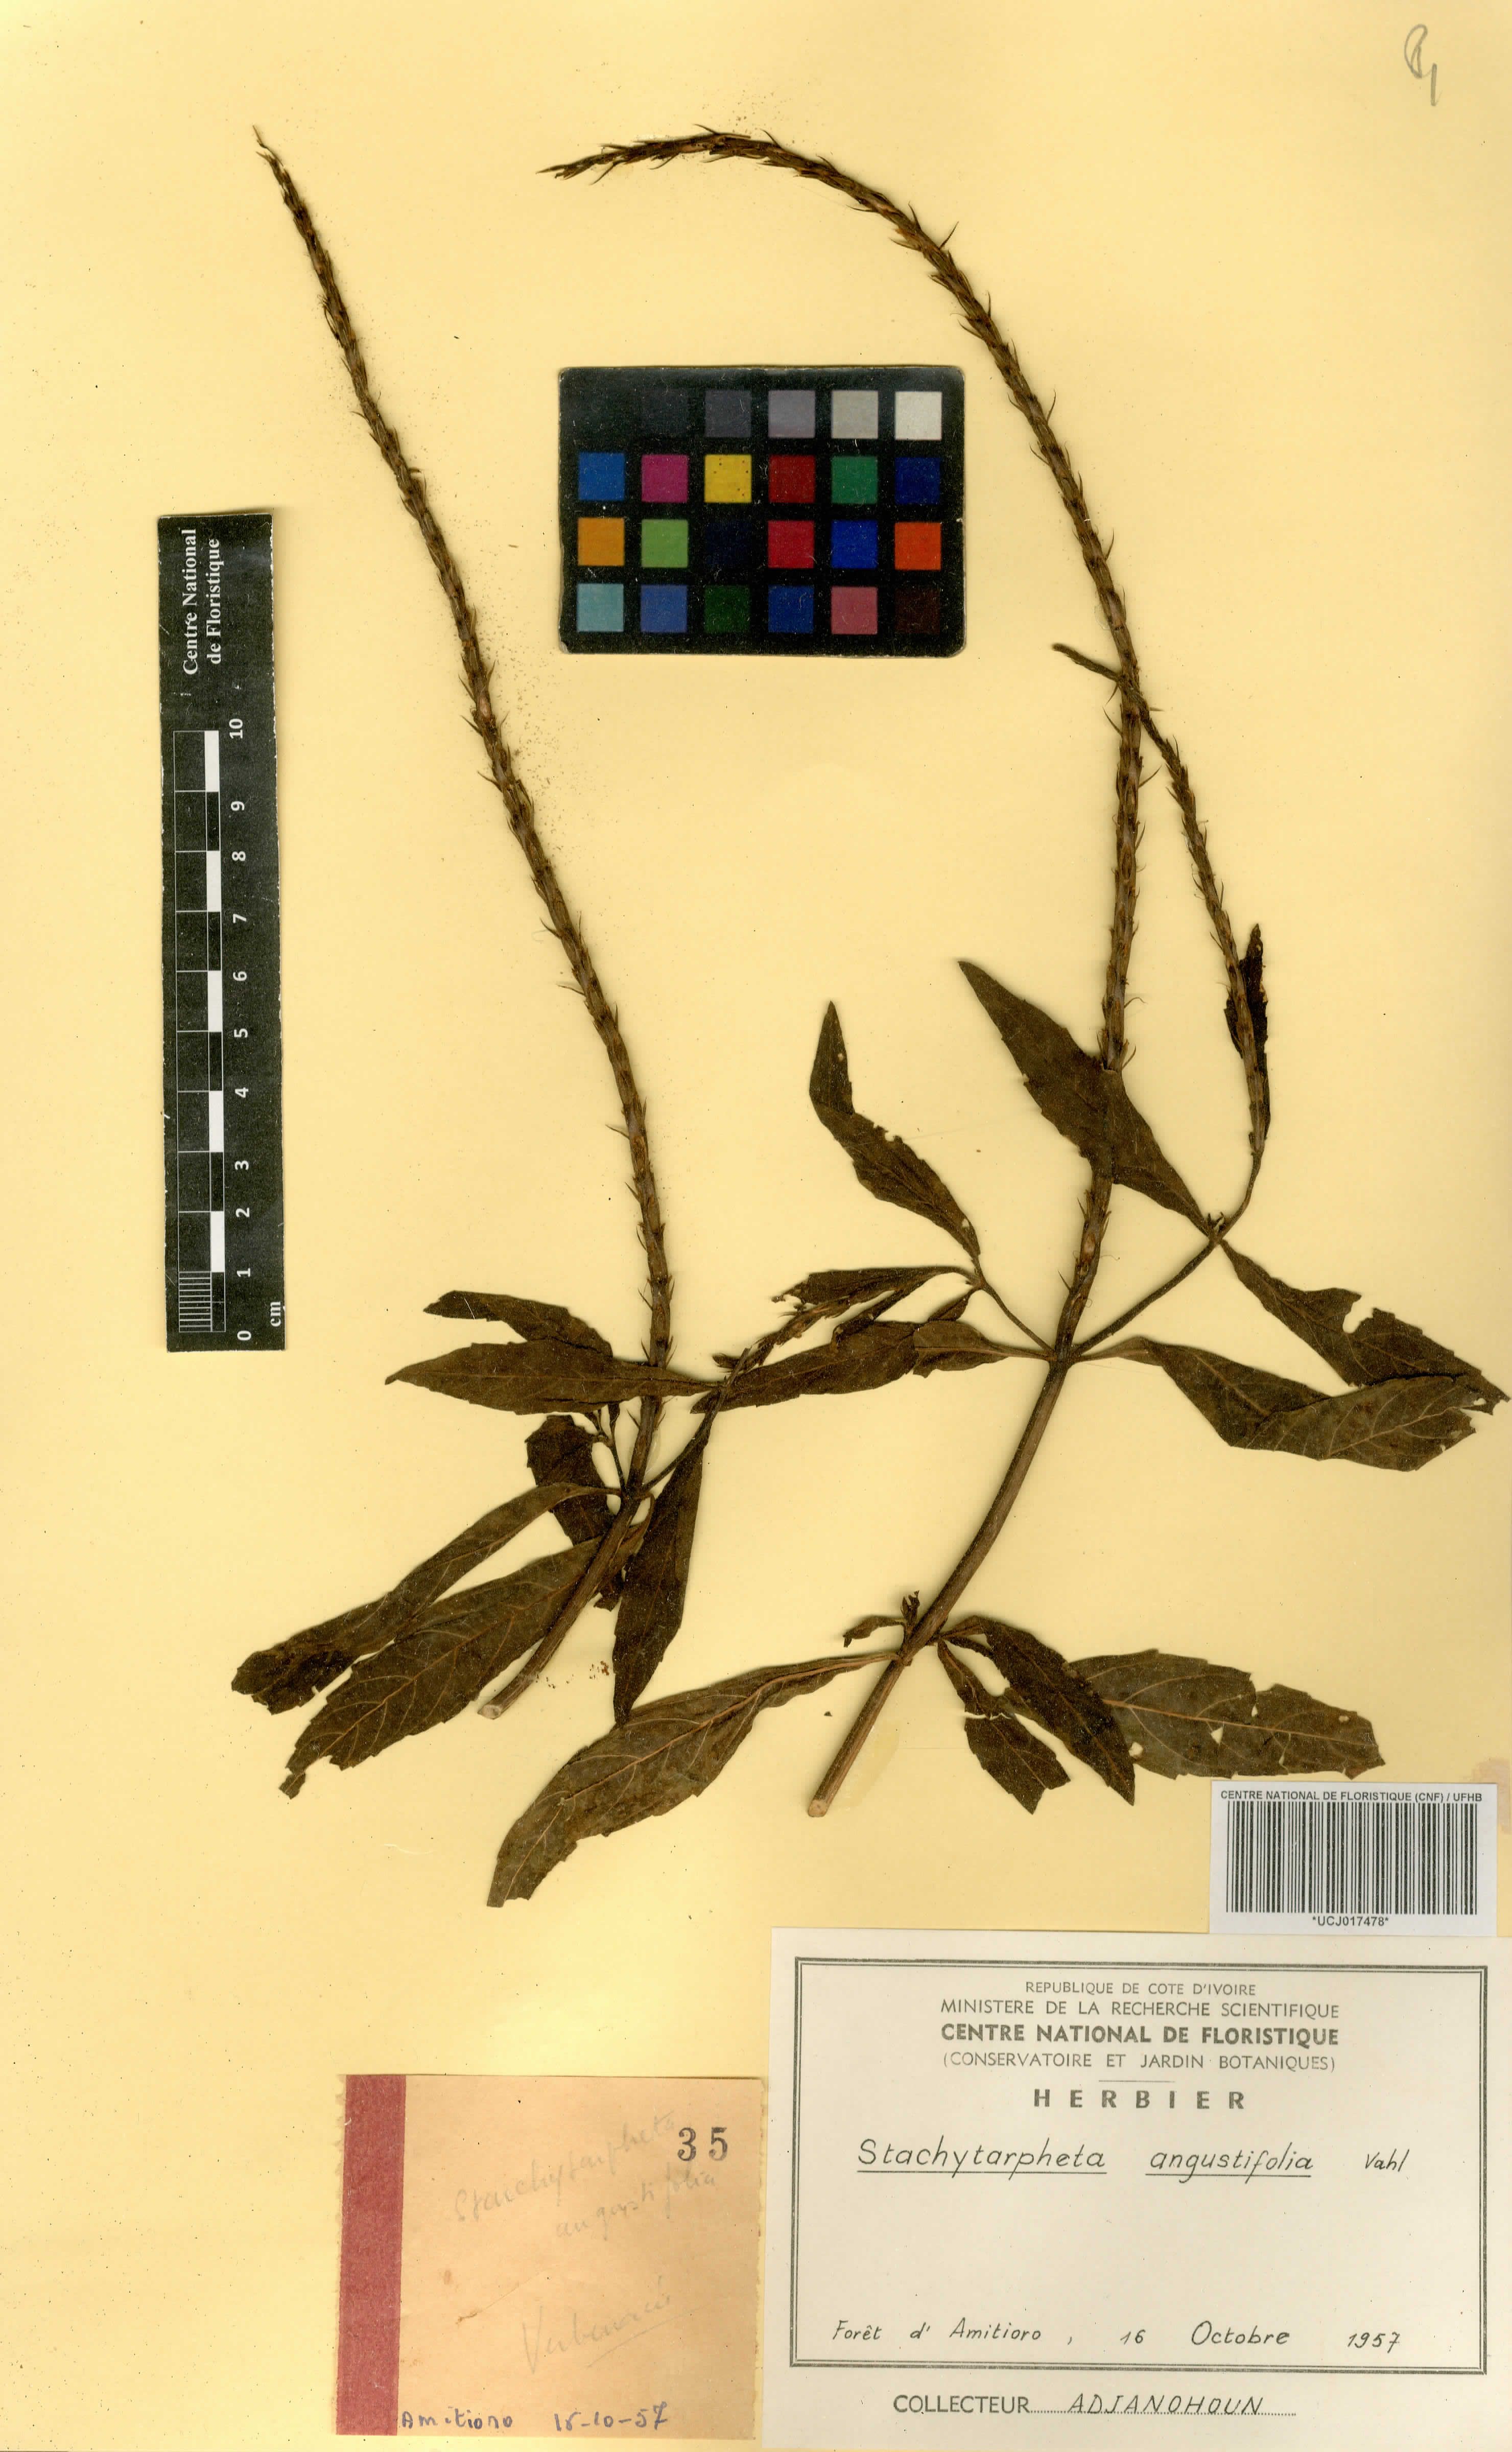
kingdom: Plantae
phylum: Tracheophyta
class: Magnoliopsida
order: Lamiales
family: Verbenaceae
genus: Stachytarpheta
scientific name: Stachytarpheta indica
